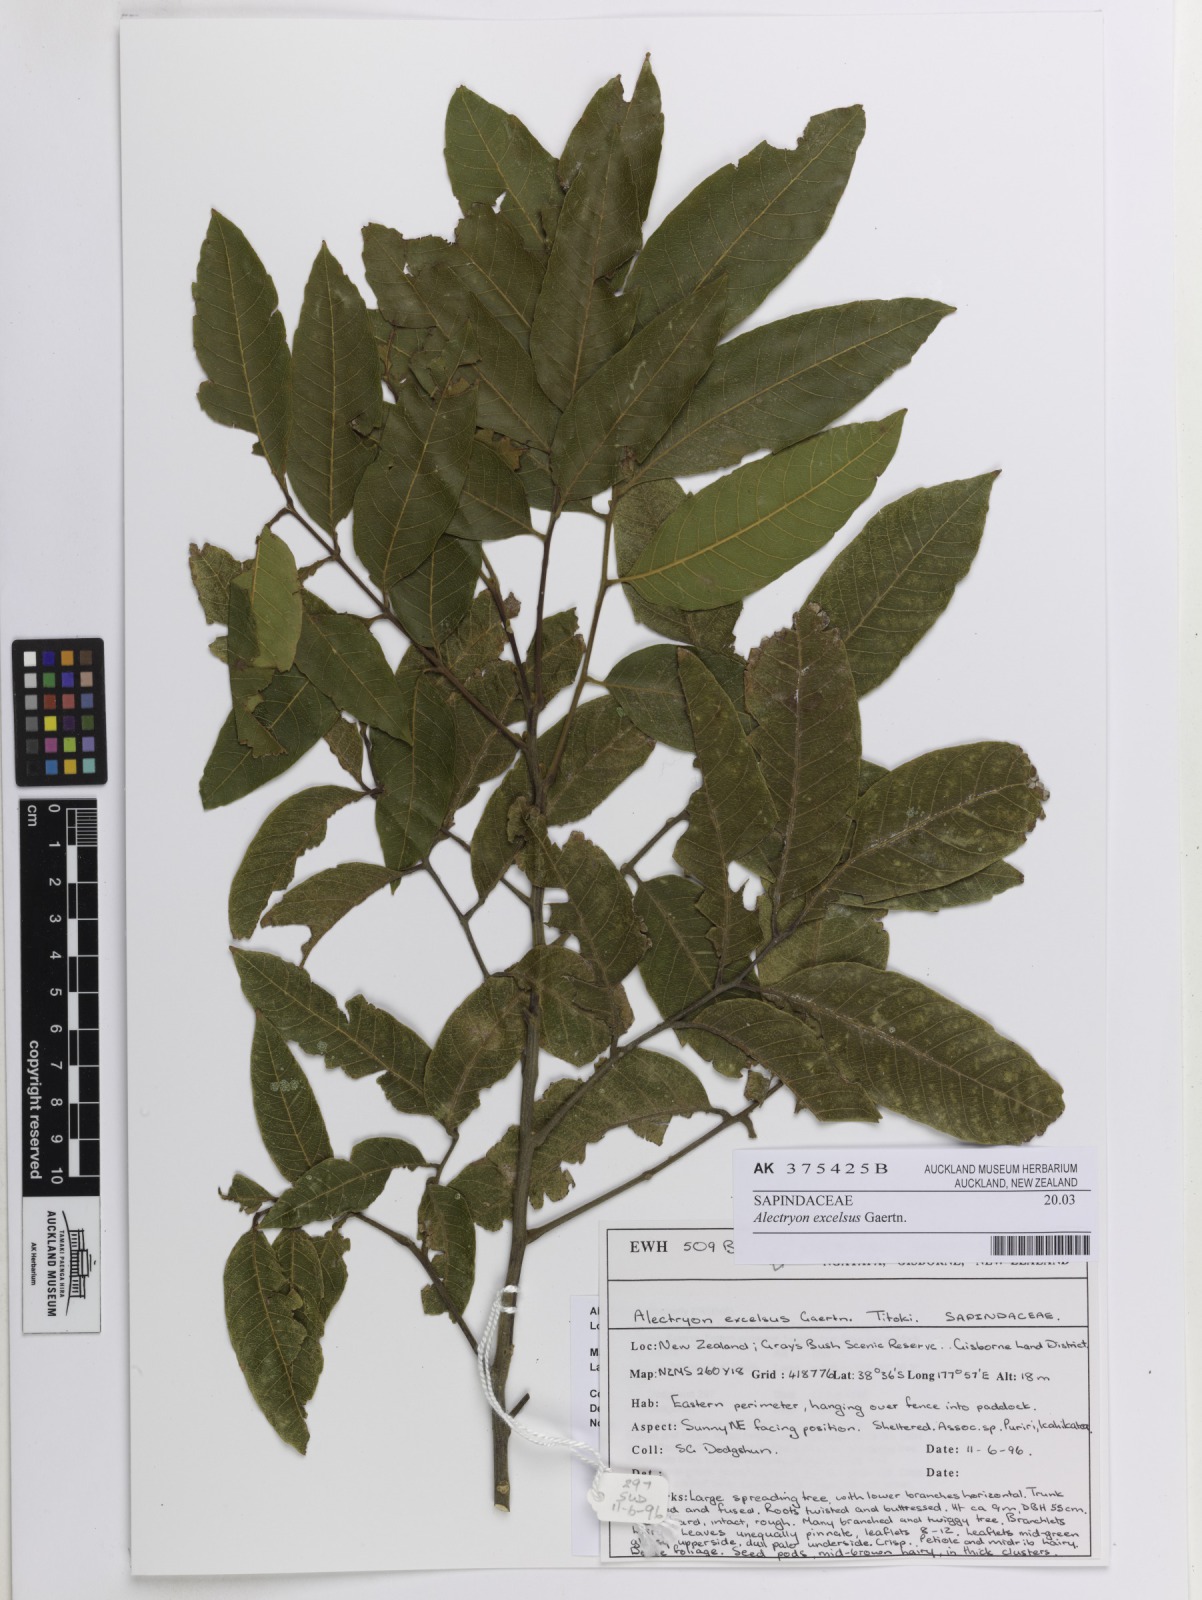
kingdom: Plantae
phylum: Tracheophyta
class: Magnoliopsida
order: Sapindales
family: Sapindaceae
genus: Alectryon
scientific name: Alectryon excelsus
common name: Three kings titoki
